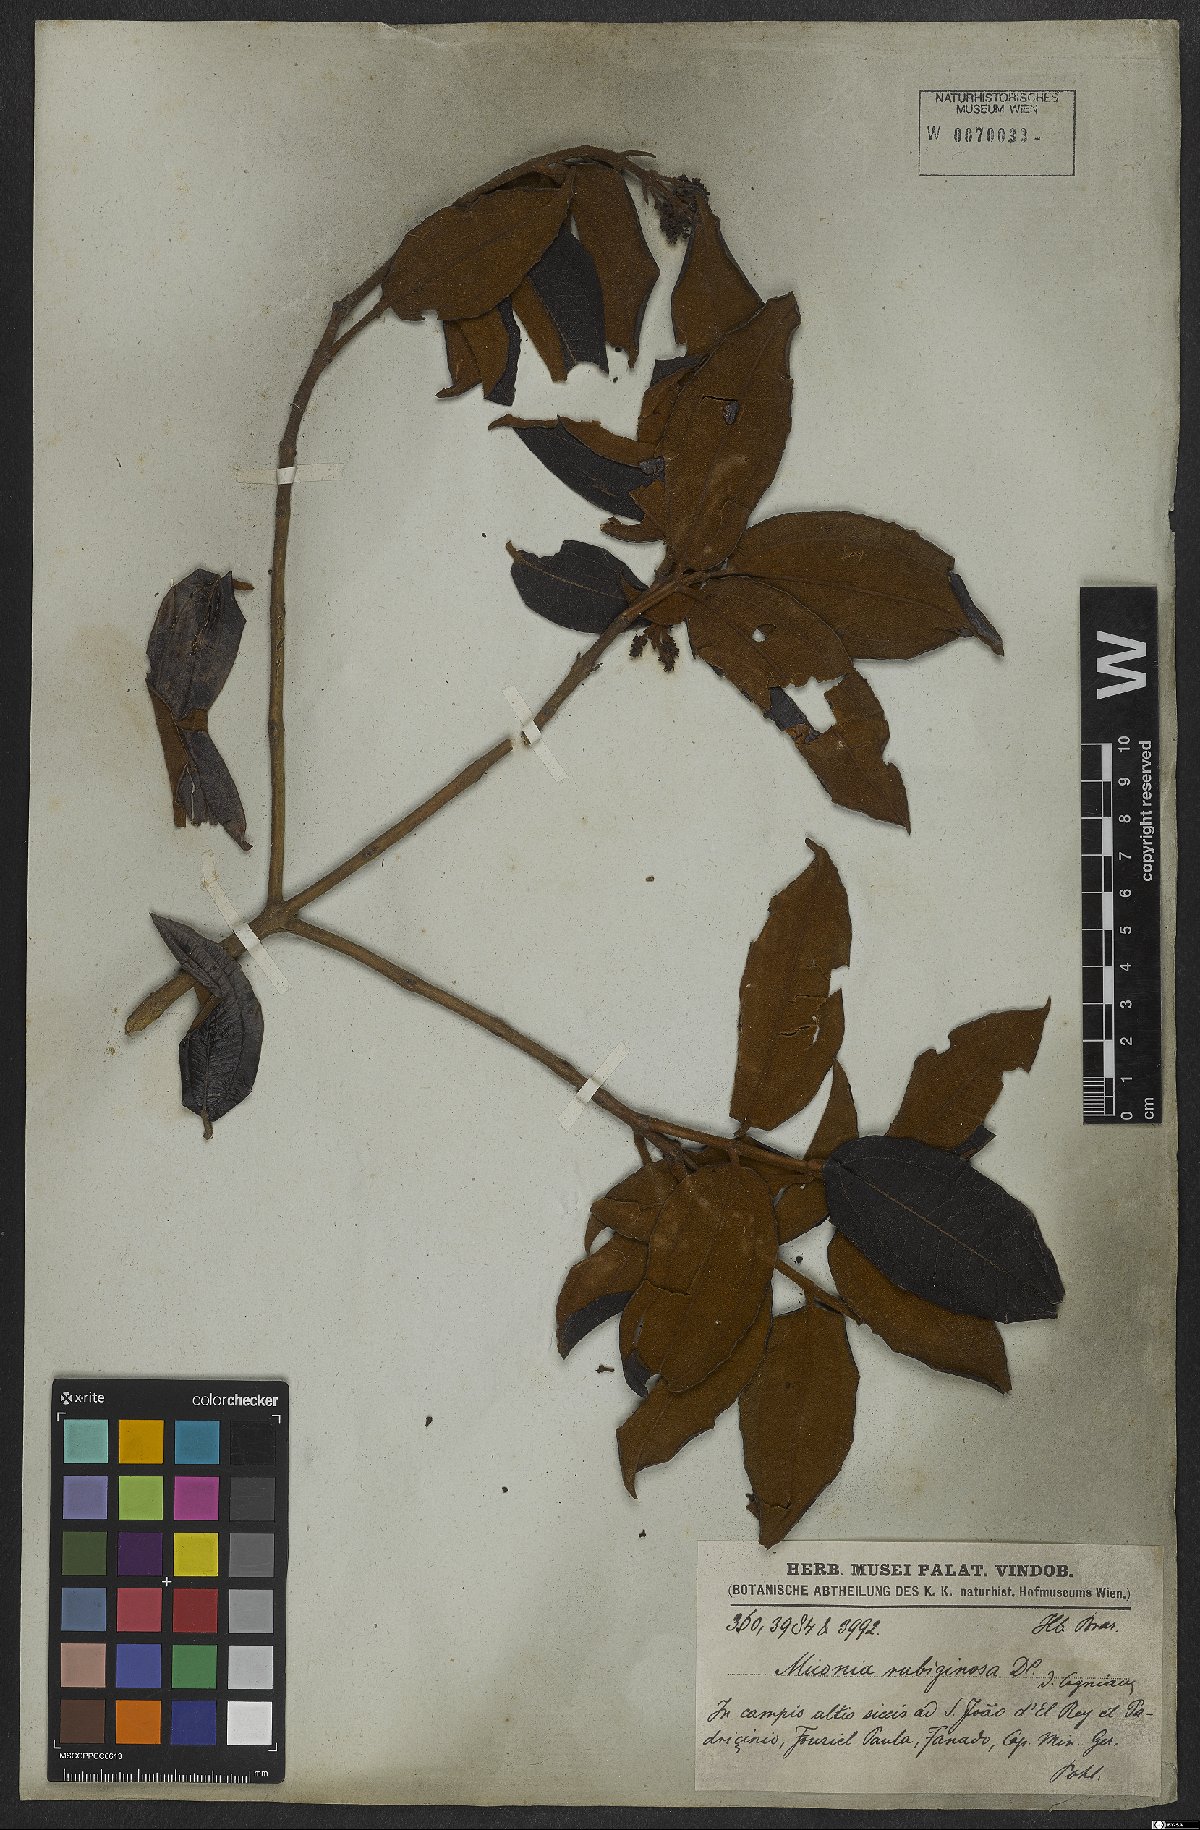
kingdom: Plantae
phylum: Tracheophyta
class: Magnoliopsida
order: Myrtales
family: Melastomataceae
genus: Miconia
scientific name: Miconia rubiginosa
